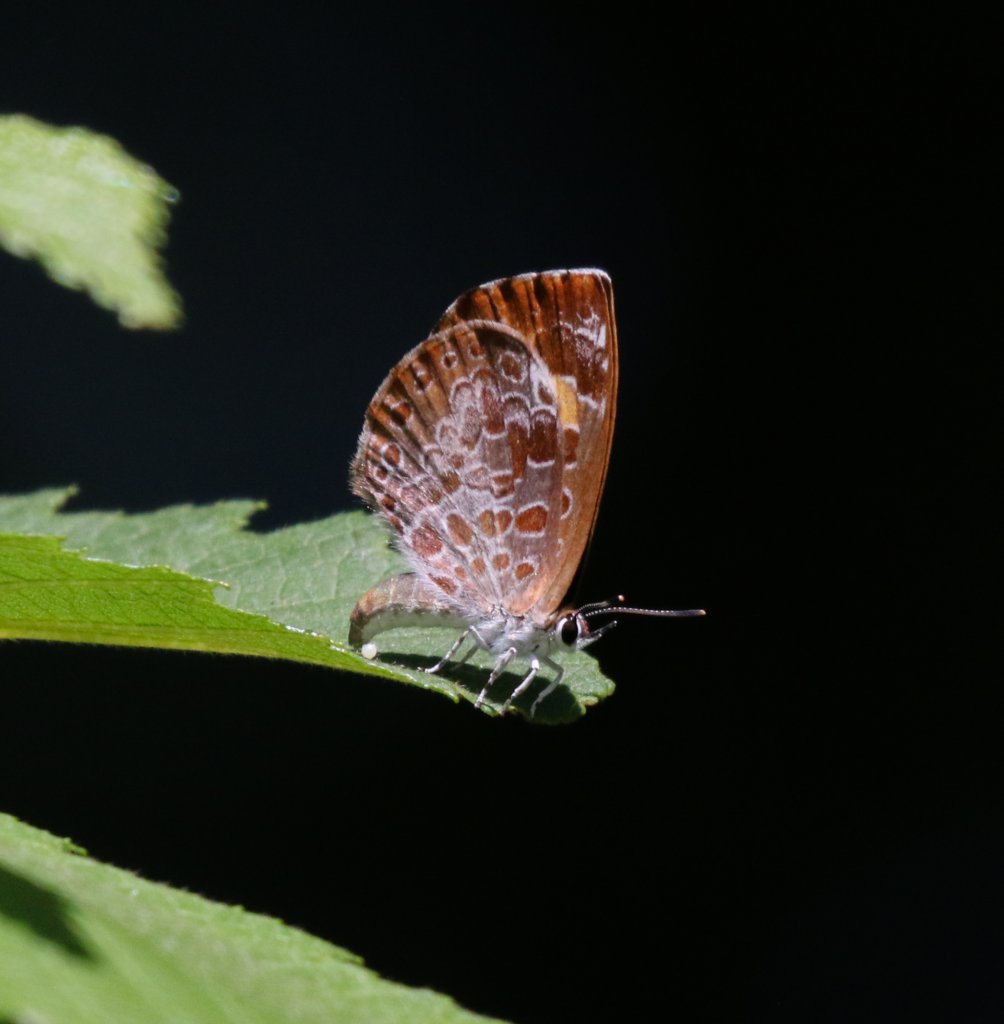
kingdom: Animalia
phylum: Arthropoda
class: Insecta
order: Lepidoptera
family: Lycaenidae
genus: Feniseca
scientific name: Feniseca tarquinius
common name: Harvester
